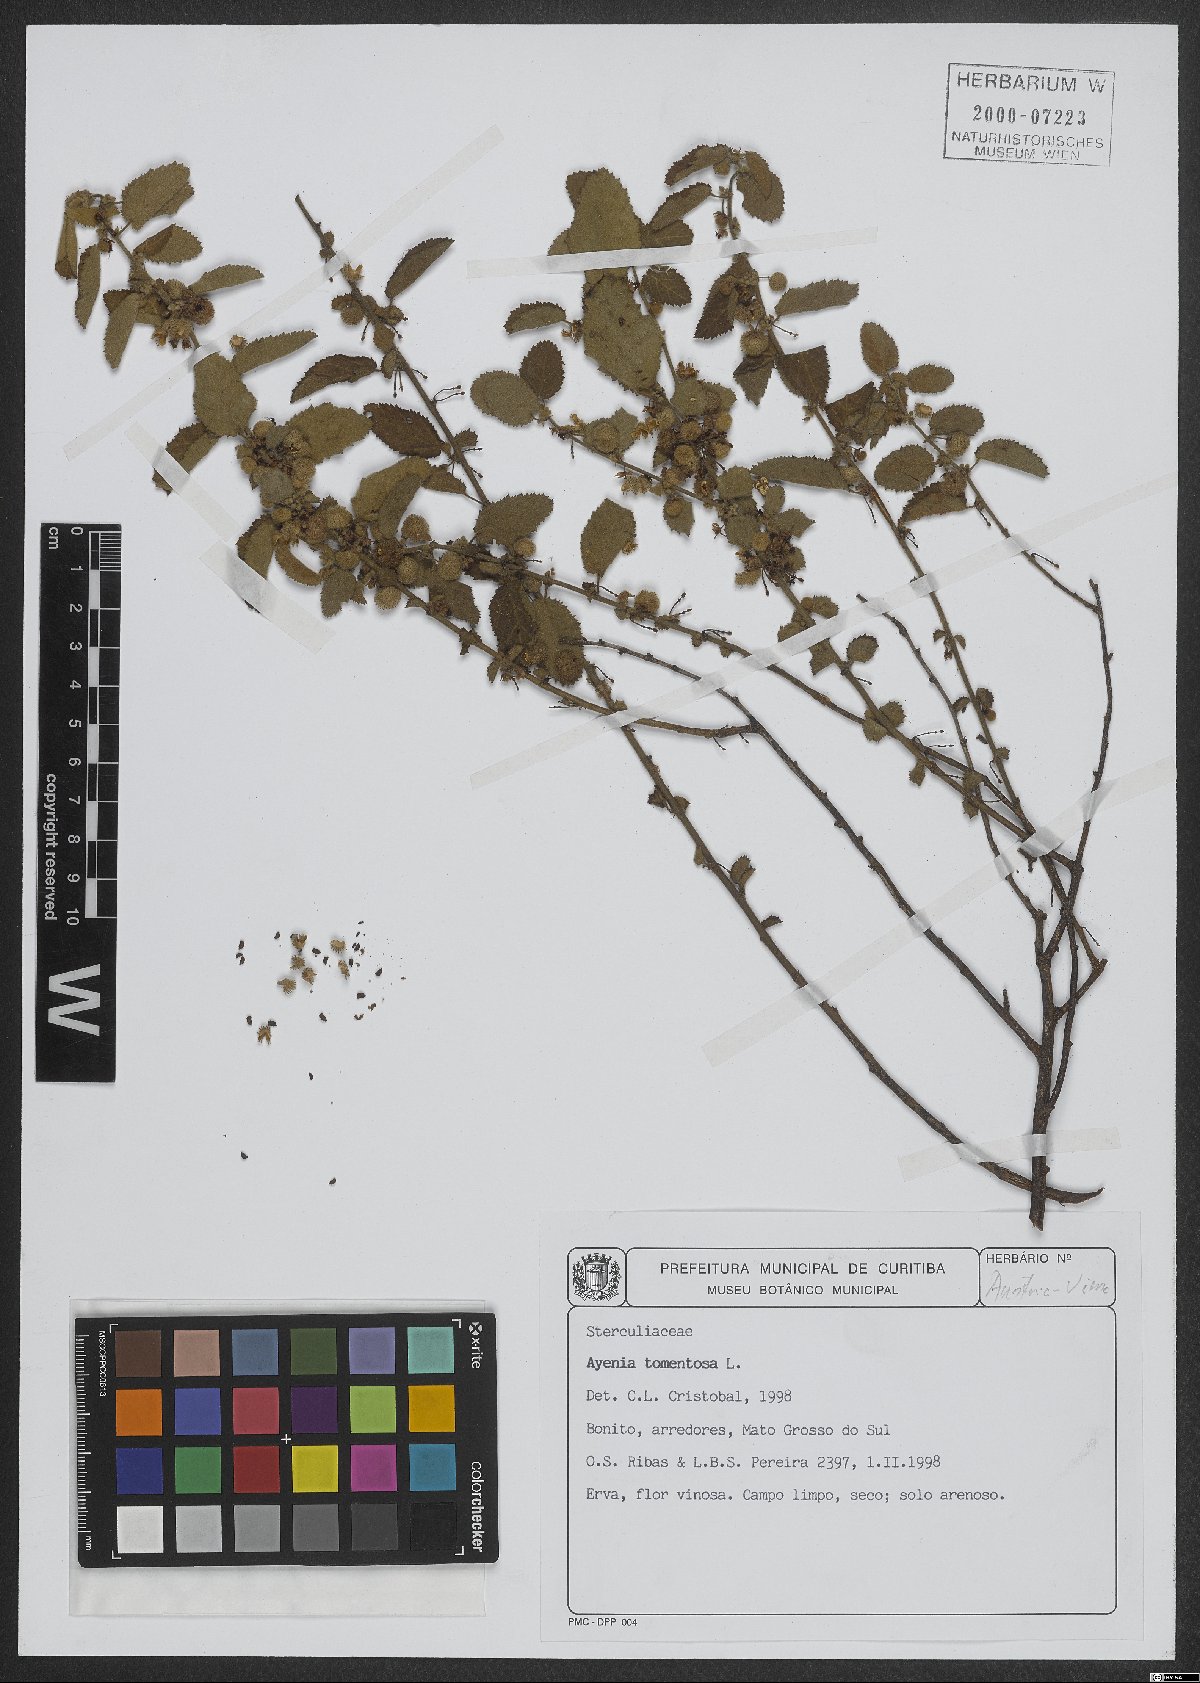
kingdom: Plantae
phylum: Tracheophyta
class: Magnoliopsida
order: Malvales
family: Malvaceae
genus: Ayenia
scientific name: Ayenia tomentosa
